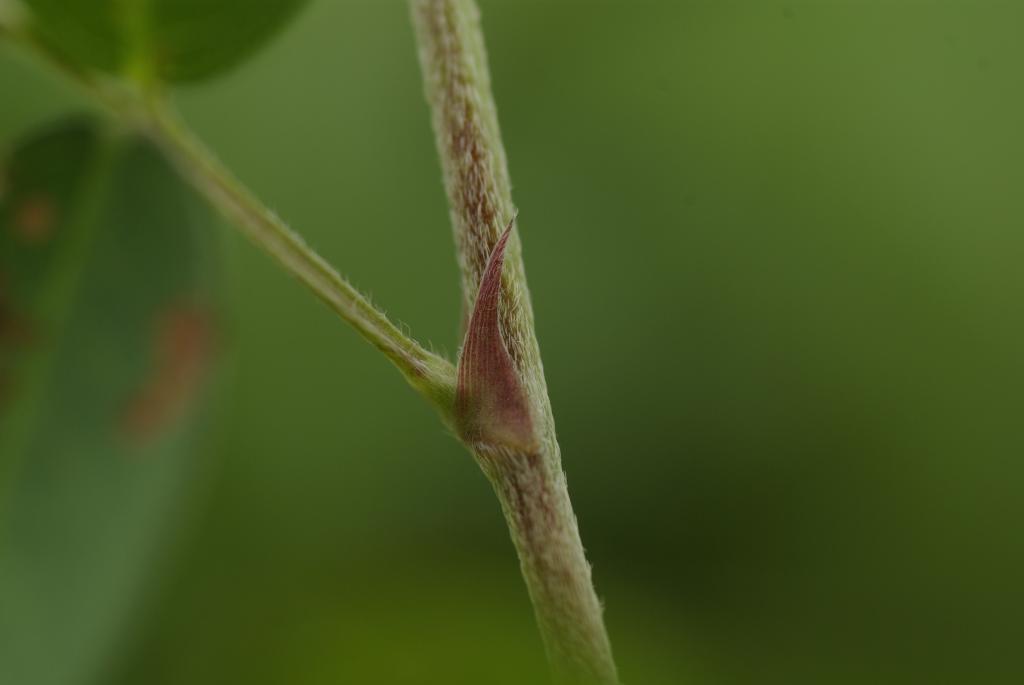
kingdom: Plantae
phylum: Tracheophyta
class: Magnoliopsida
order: Fabales
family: Fabaceae
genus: Grona
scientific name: Grona heterocarpos
